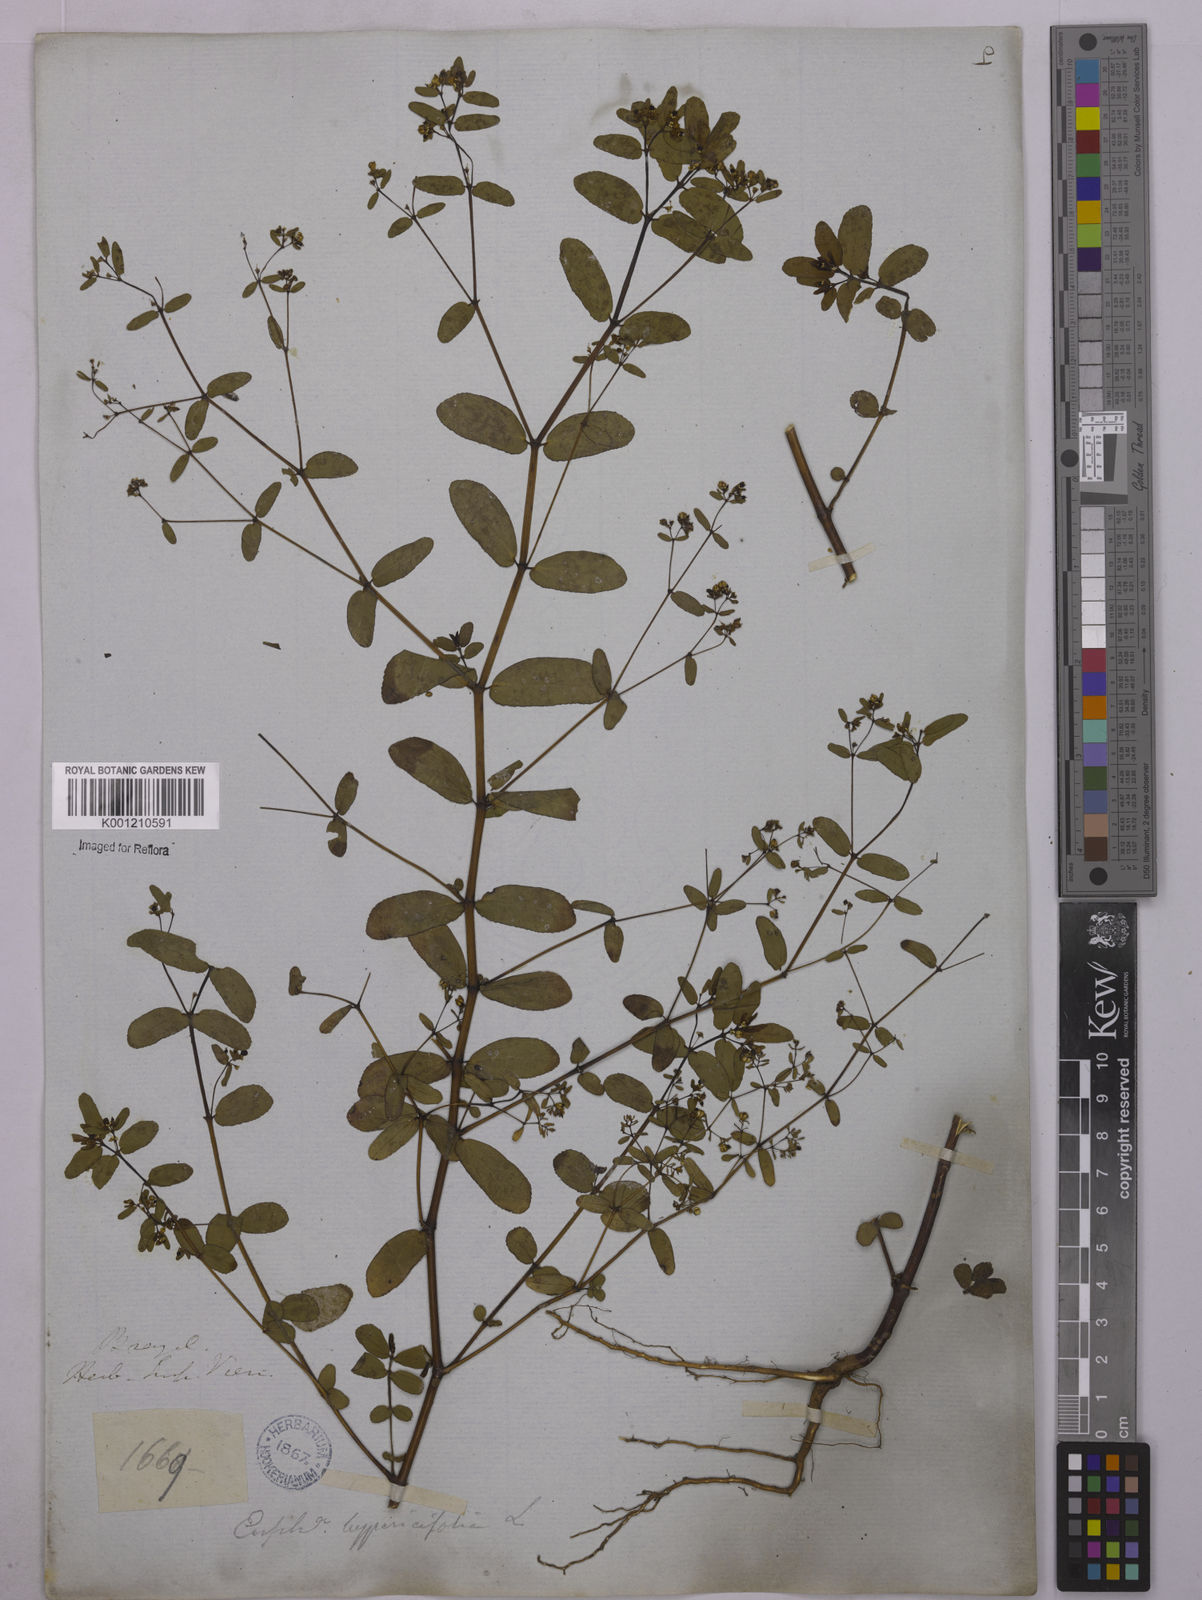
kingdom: Plantae
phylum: Tracheophyta
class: Magnoliopsida
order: Malpighiales
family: Euphorbiaceae
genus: Euphorbia
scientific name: Euphorbia hyssopifolia
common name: Hyssopleaf sandmat
